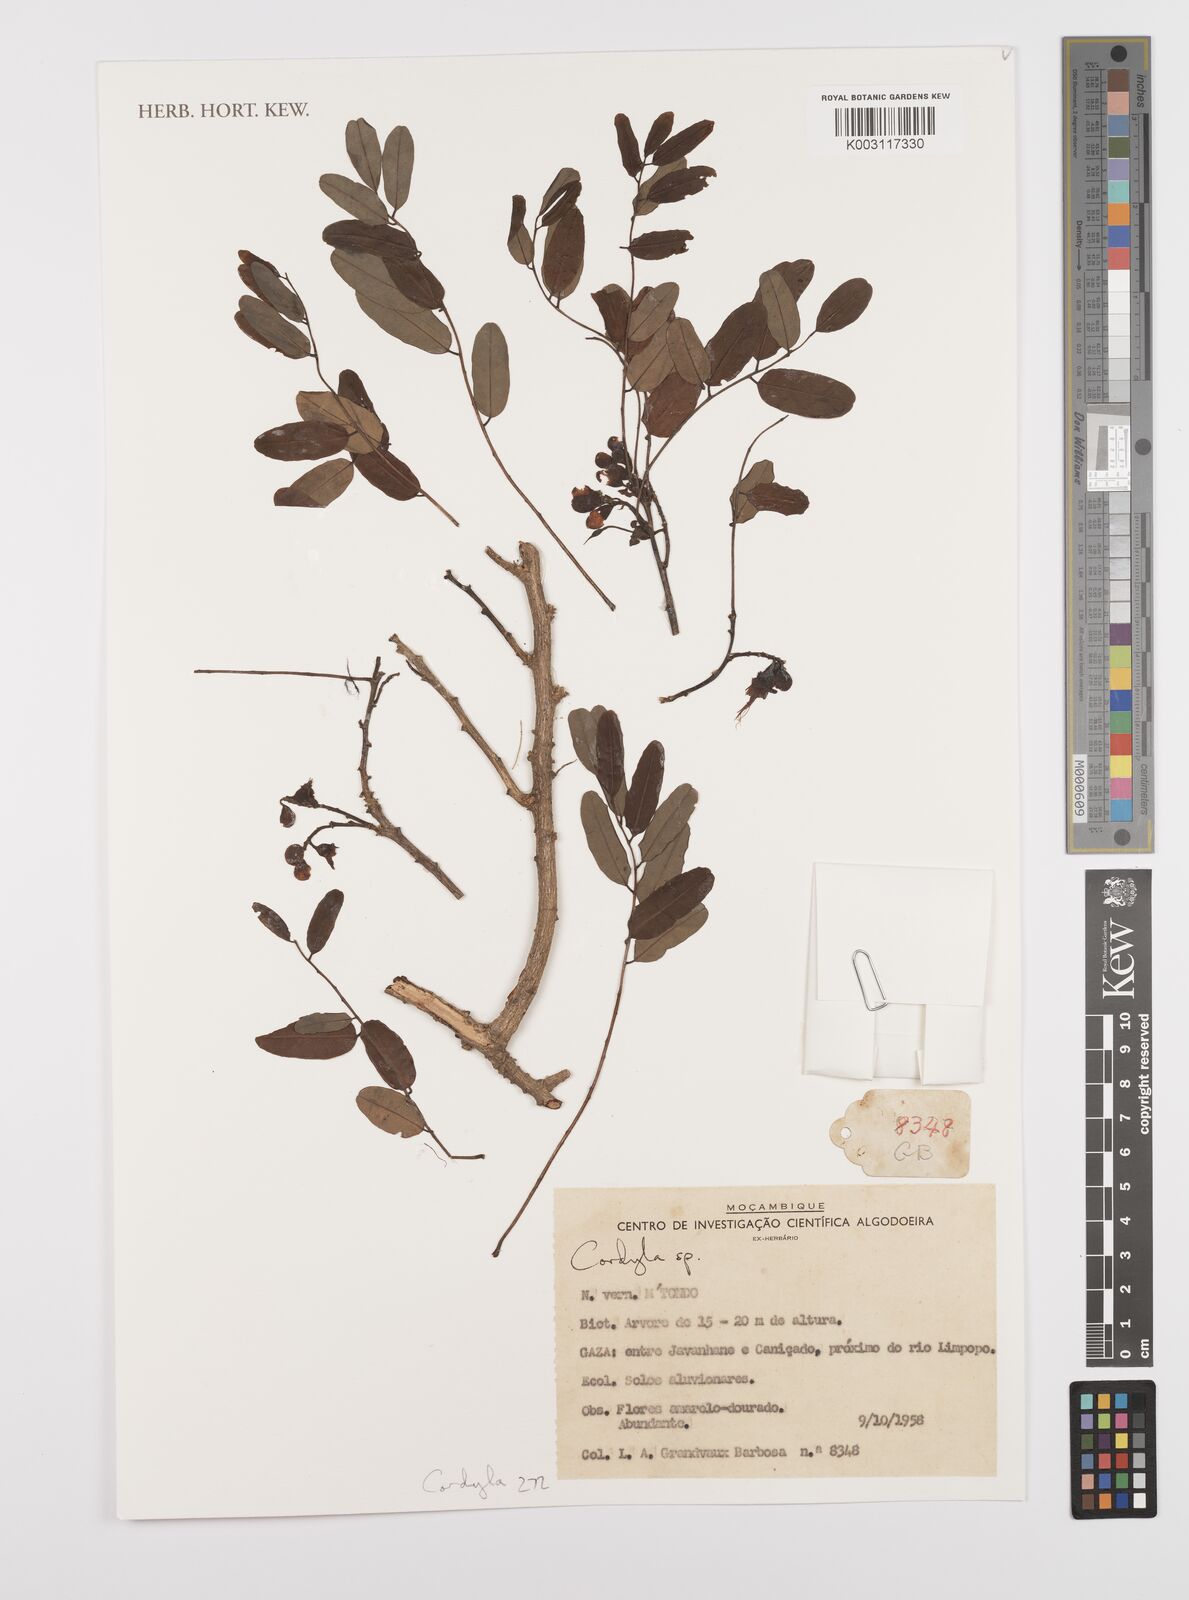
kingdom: Plantae
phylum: Tracheophyta
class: Magnoliopsida
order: Fabales
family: Fabaceae
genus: Cordyla
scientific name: Cordyla
